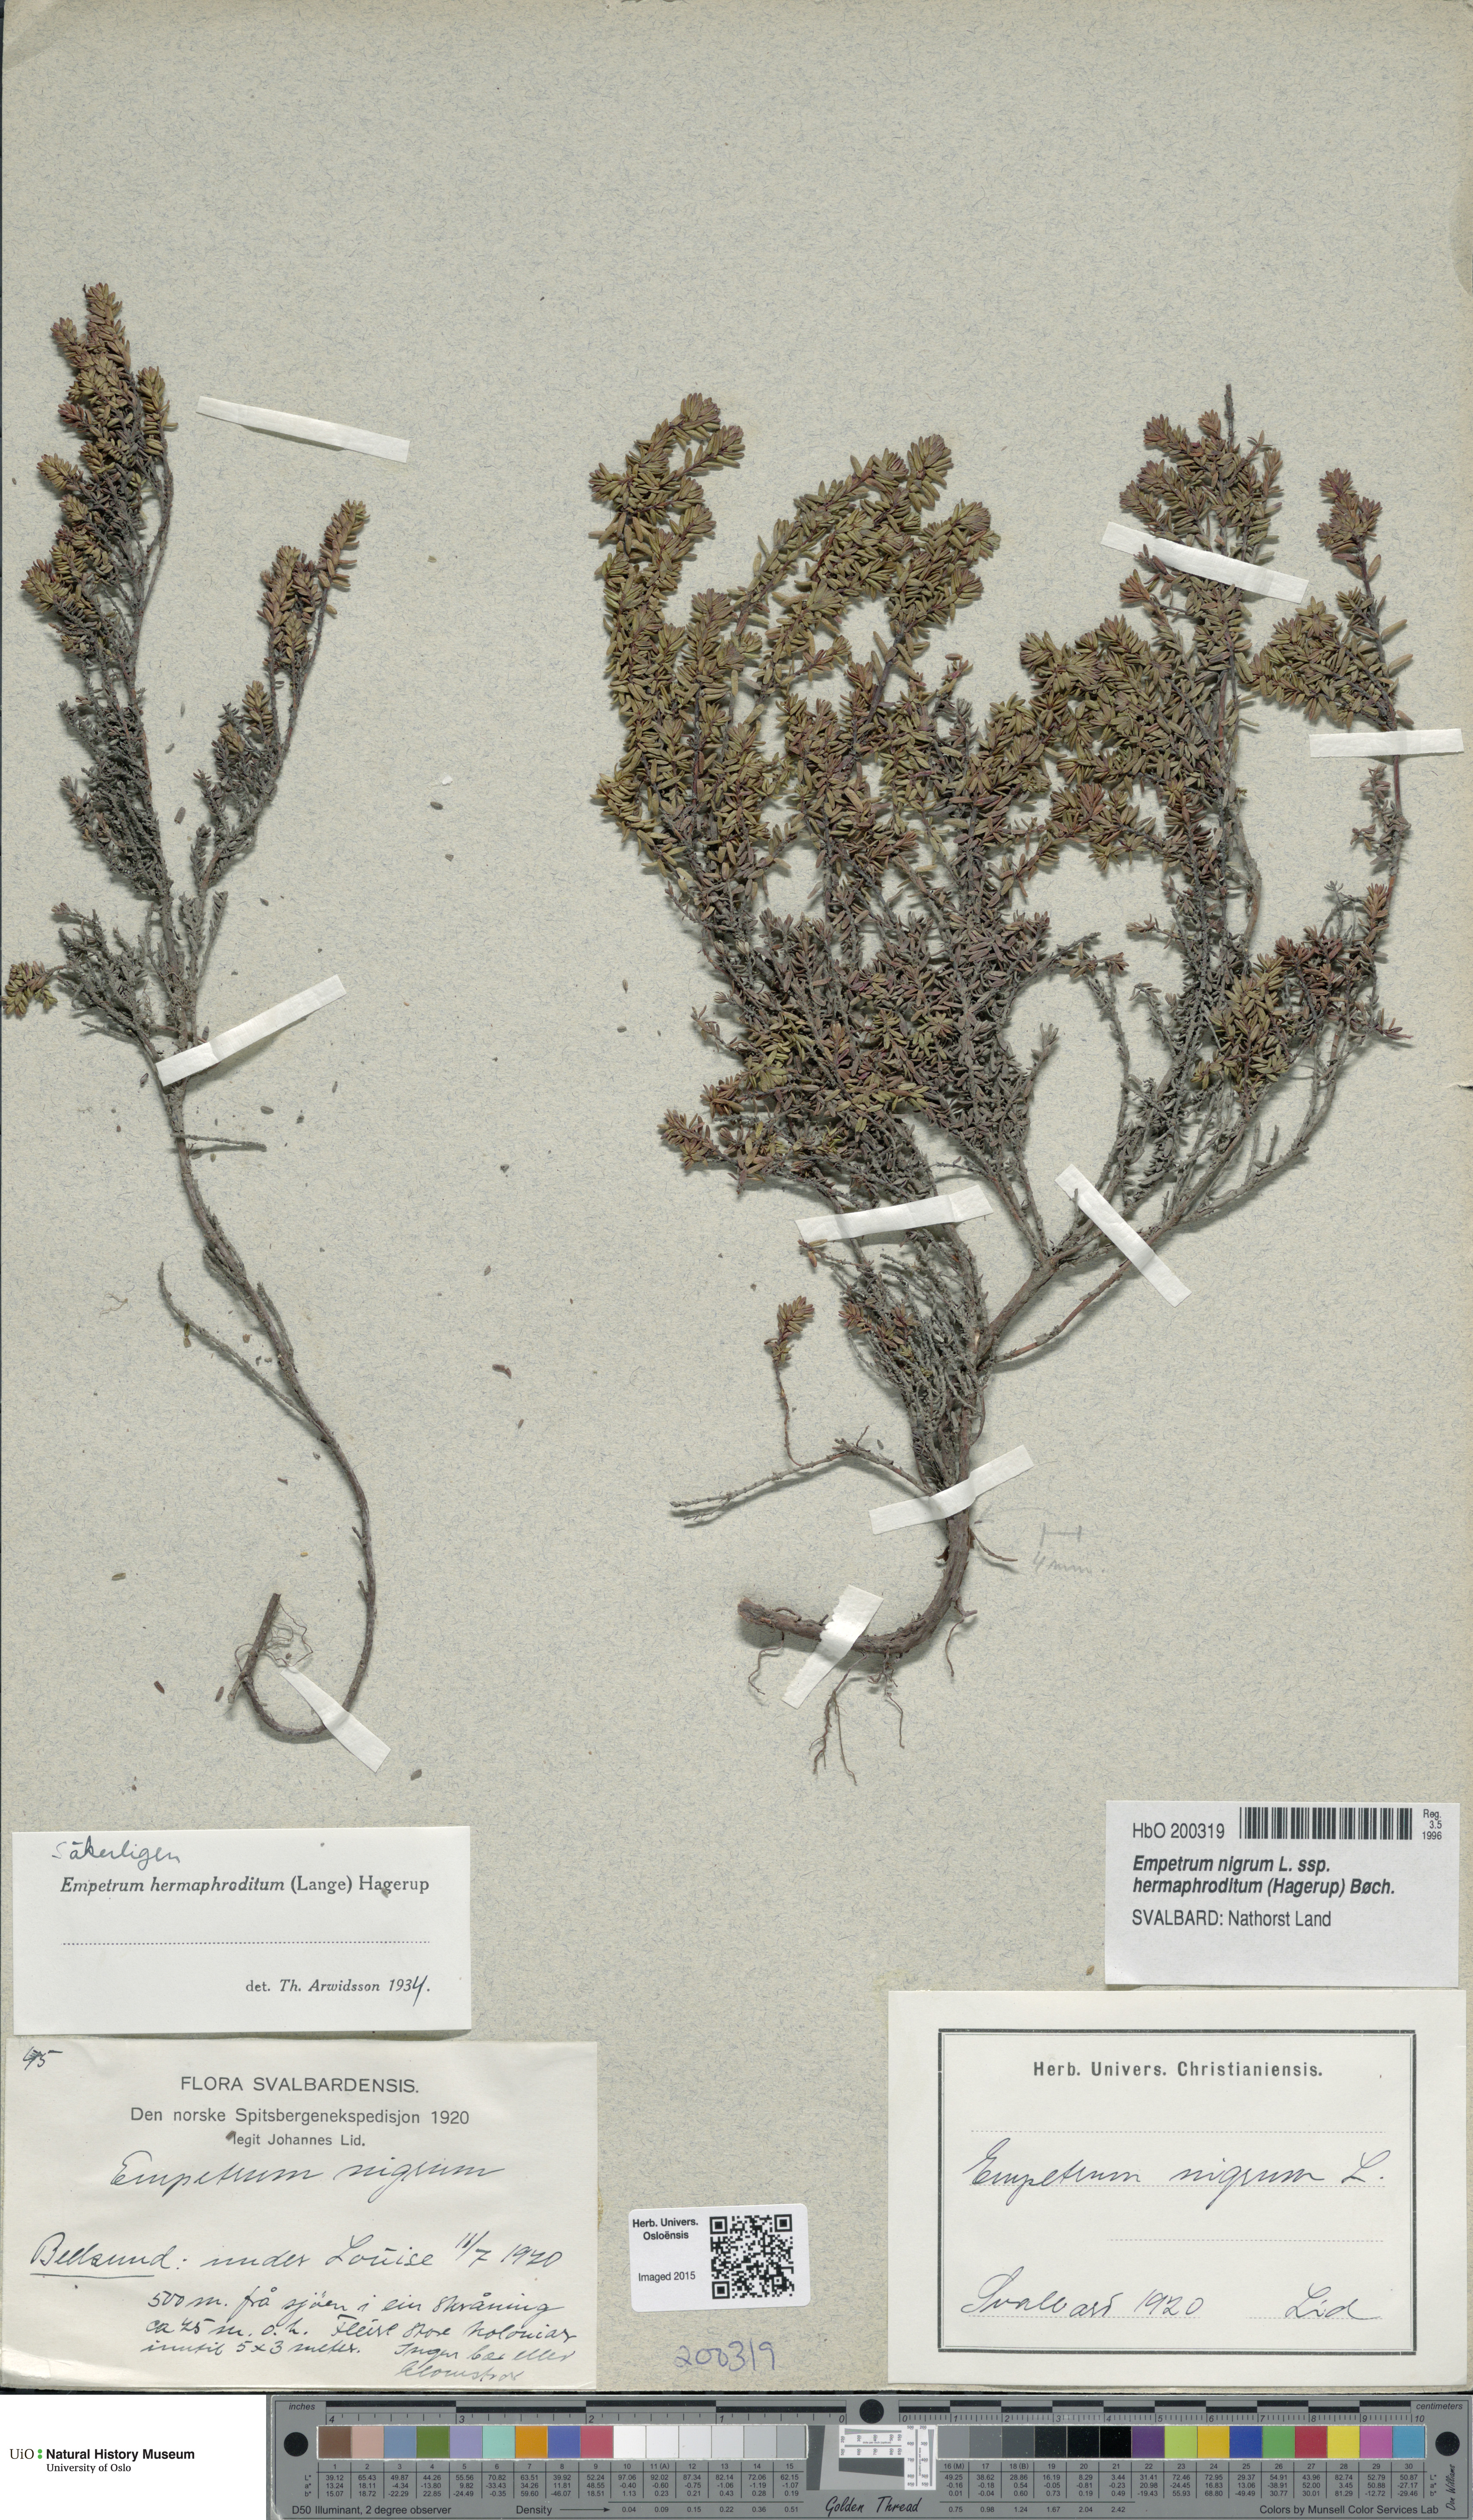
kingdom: Plantae
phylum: Tracheophyta
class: Magnoliopsida
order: Ericales
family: Ericaceae
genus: Empetrum
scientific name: Empetrum hermaphroditum
